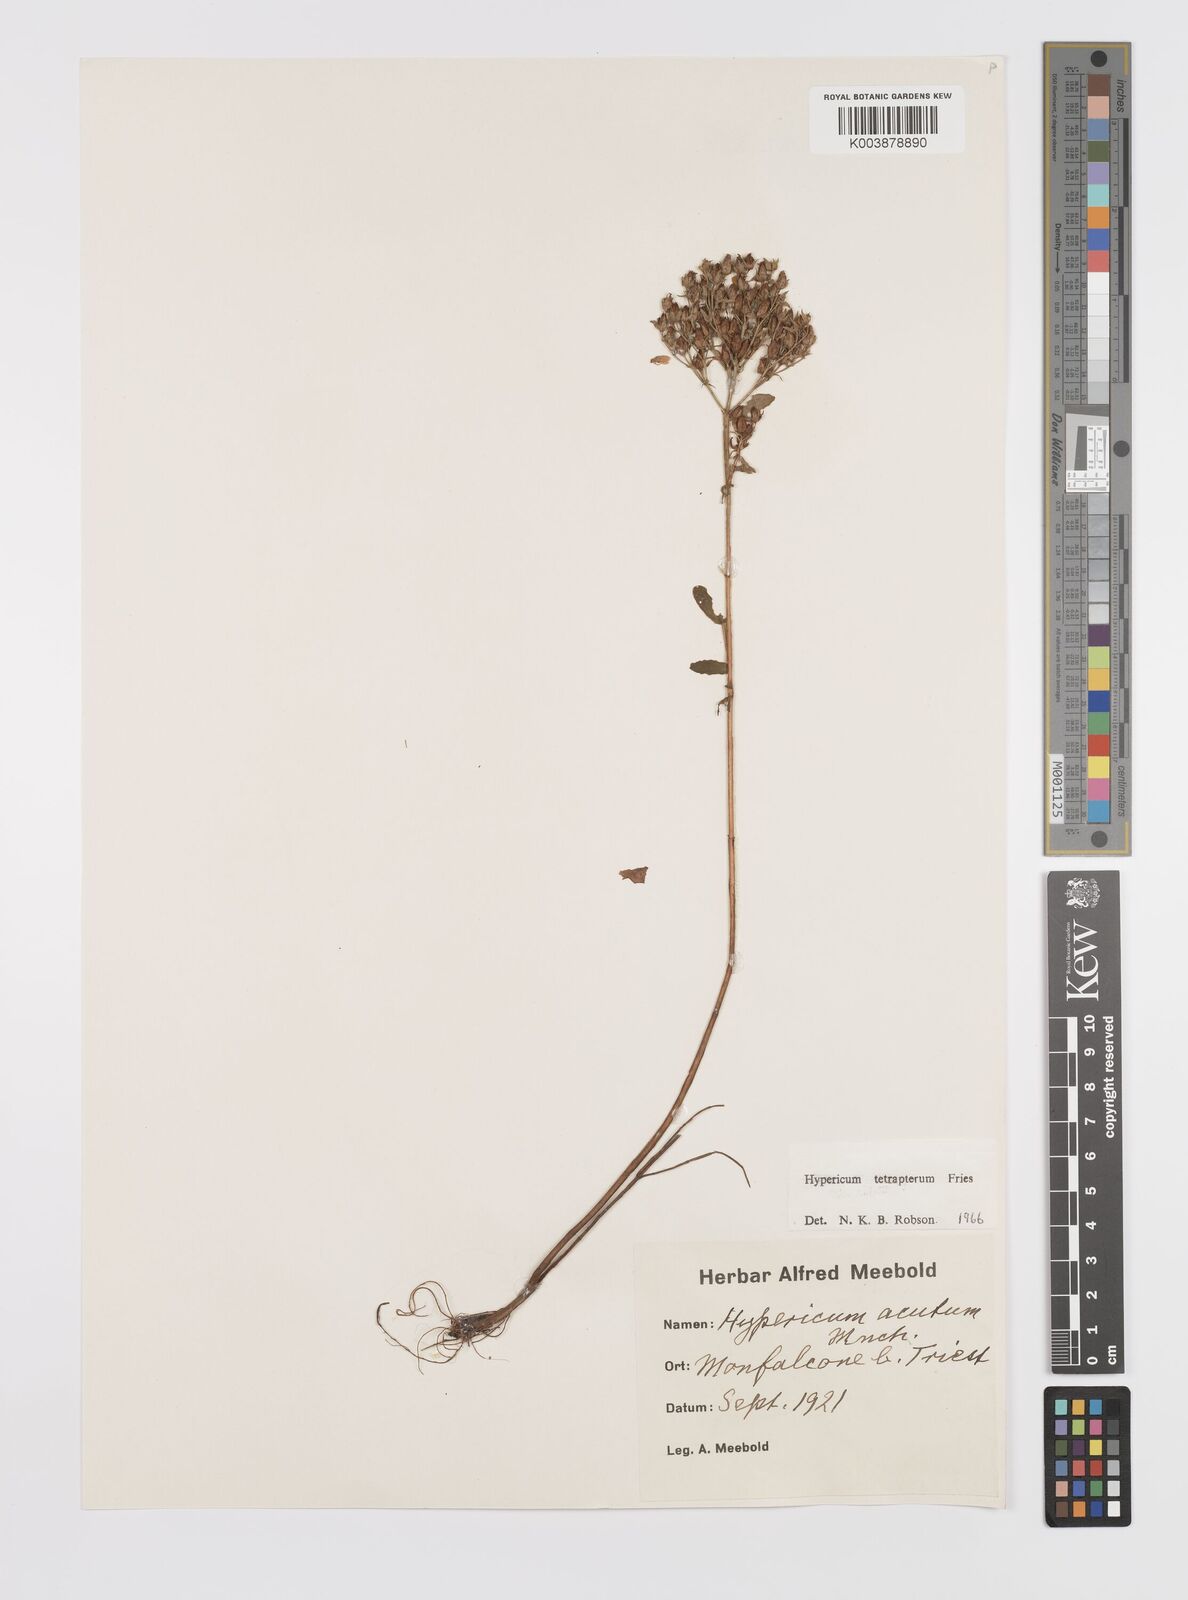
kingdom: Plantae
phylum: Tracheophyta
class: Magnoliopsida
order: Malpighiales
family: Hypericaceae
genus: Hypericum
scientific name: Hypericum tetrapterum
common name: Square-stalked st. john's-wort
